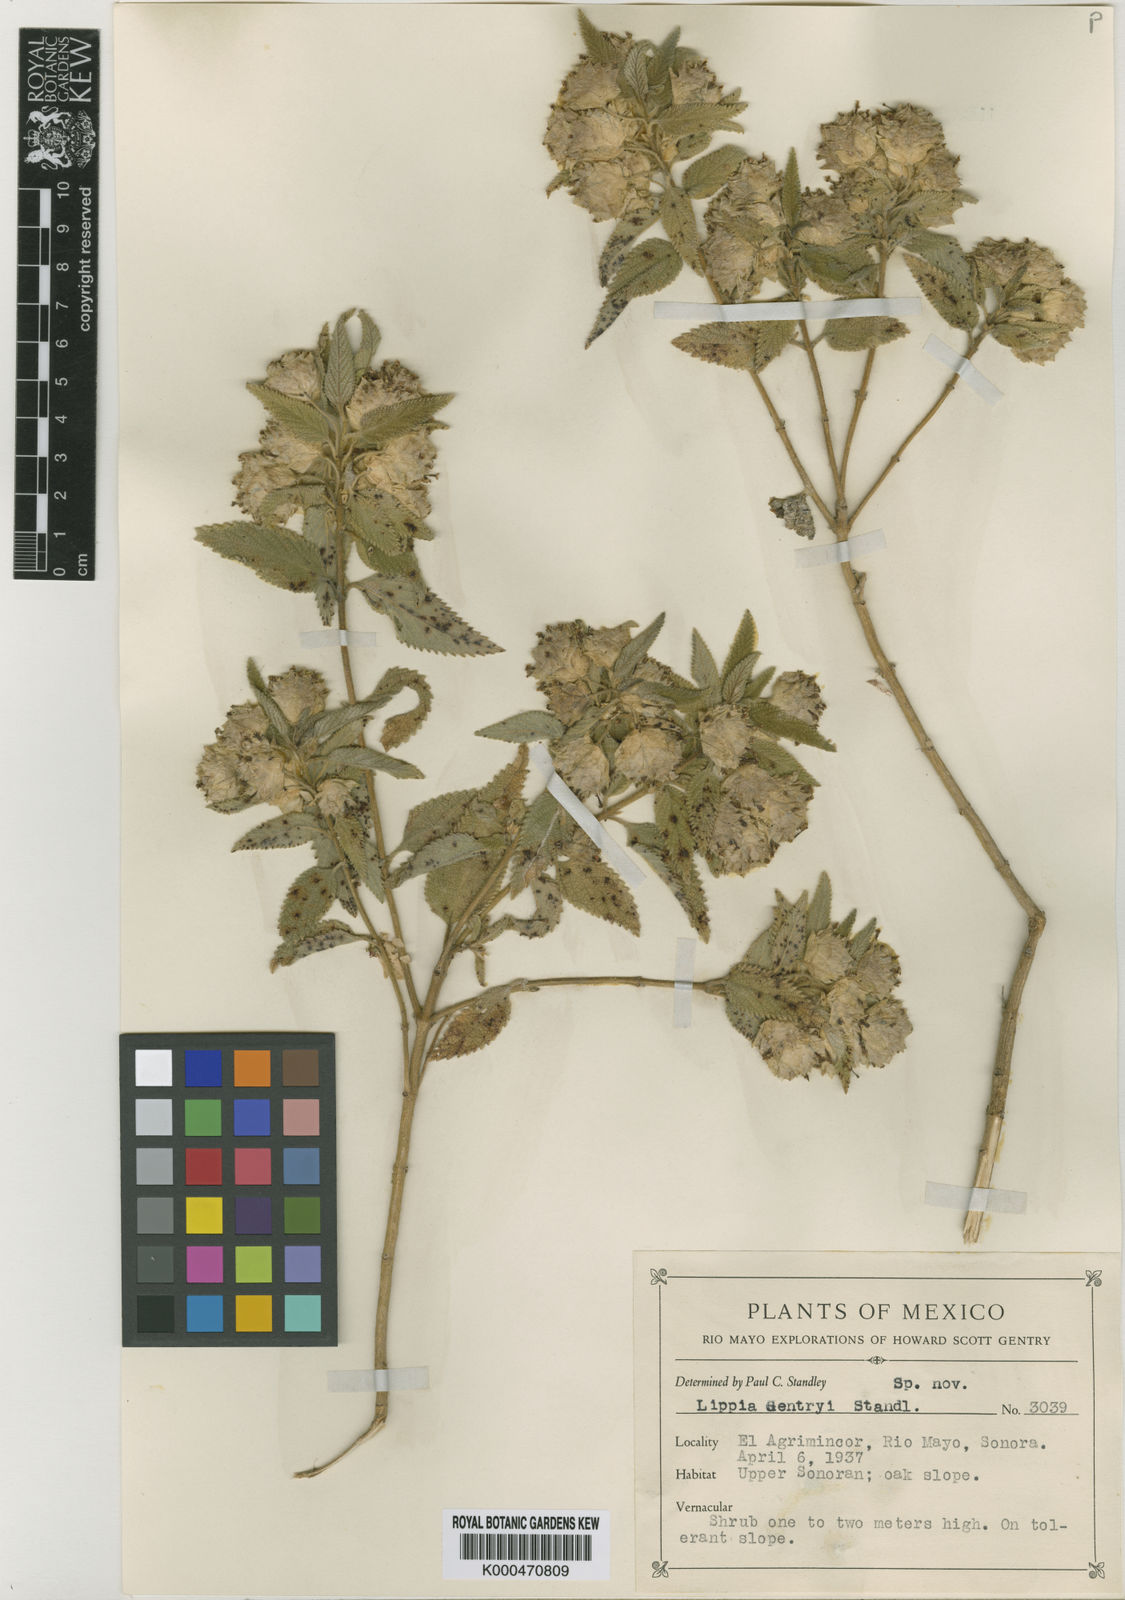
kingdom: Plantae
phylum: Tracheophyta
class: Magnoliopsida
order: Lamiales
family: Verbenaceae
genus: Lippia
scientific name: Lippia gentryi
